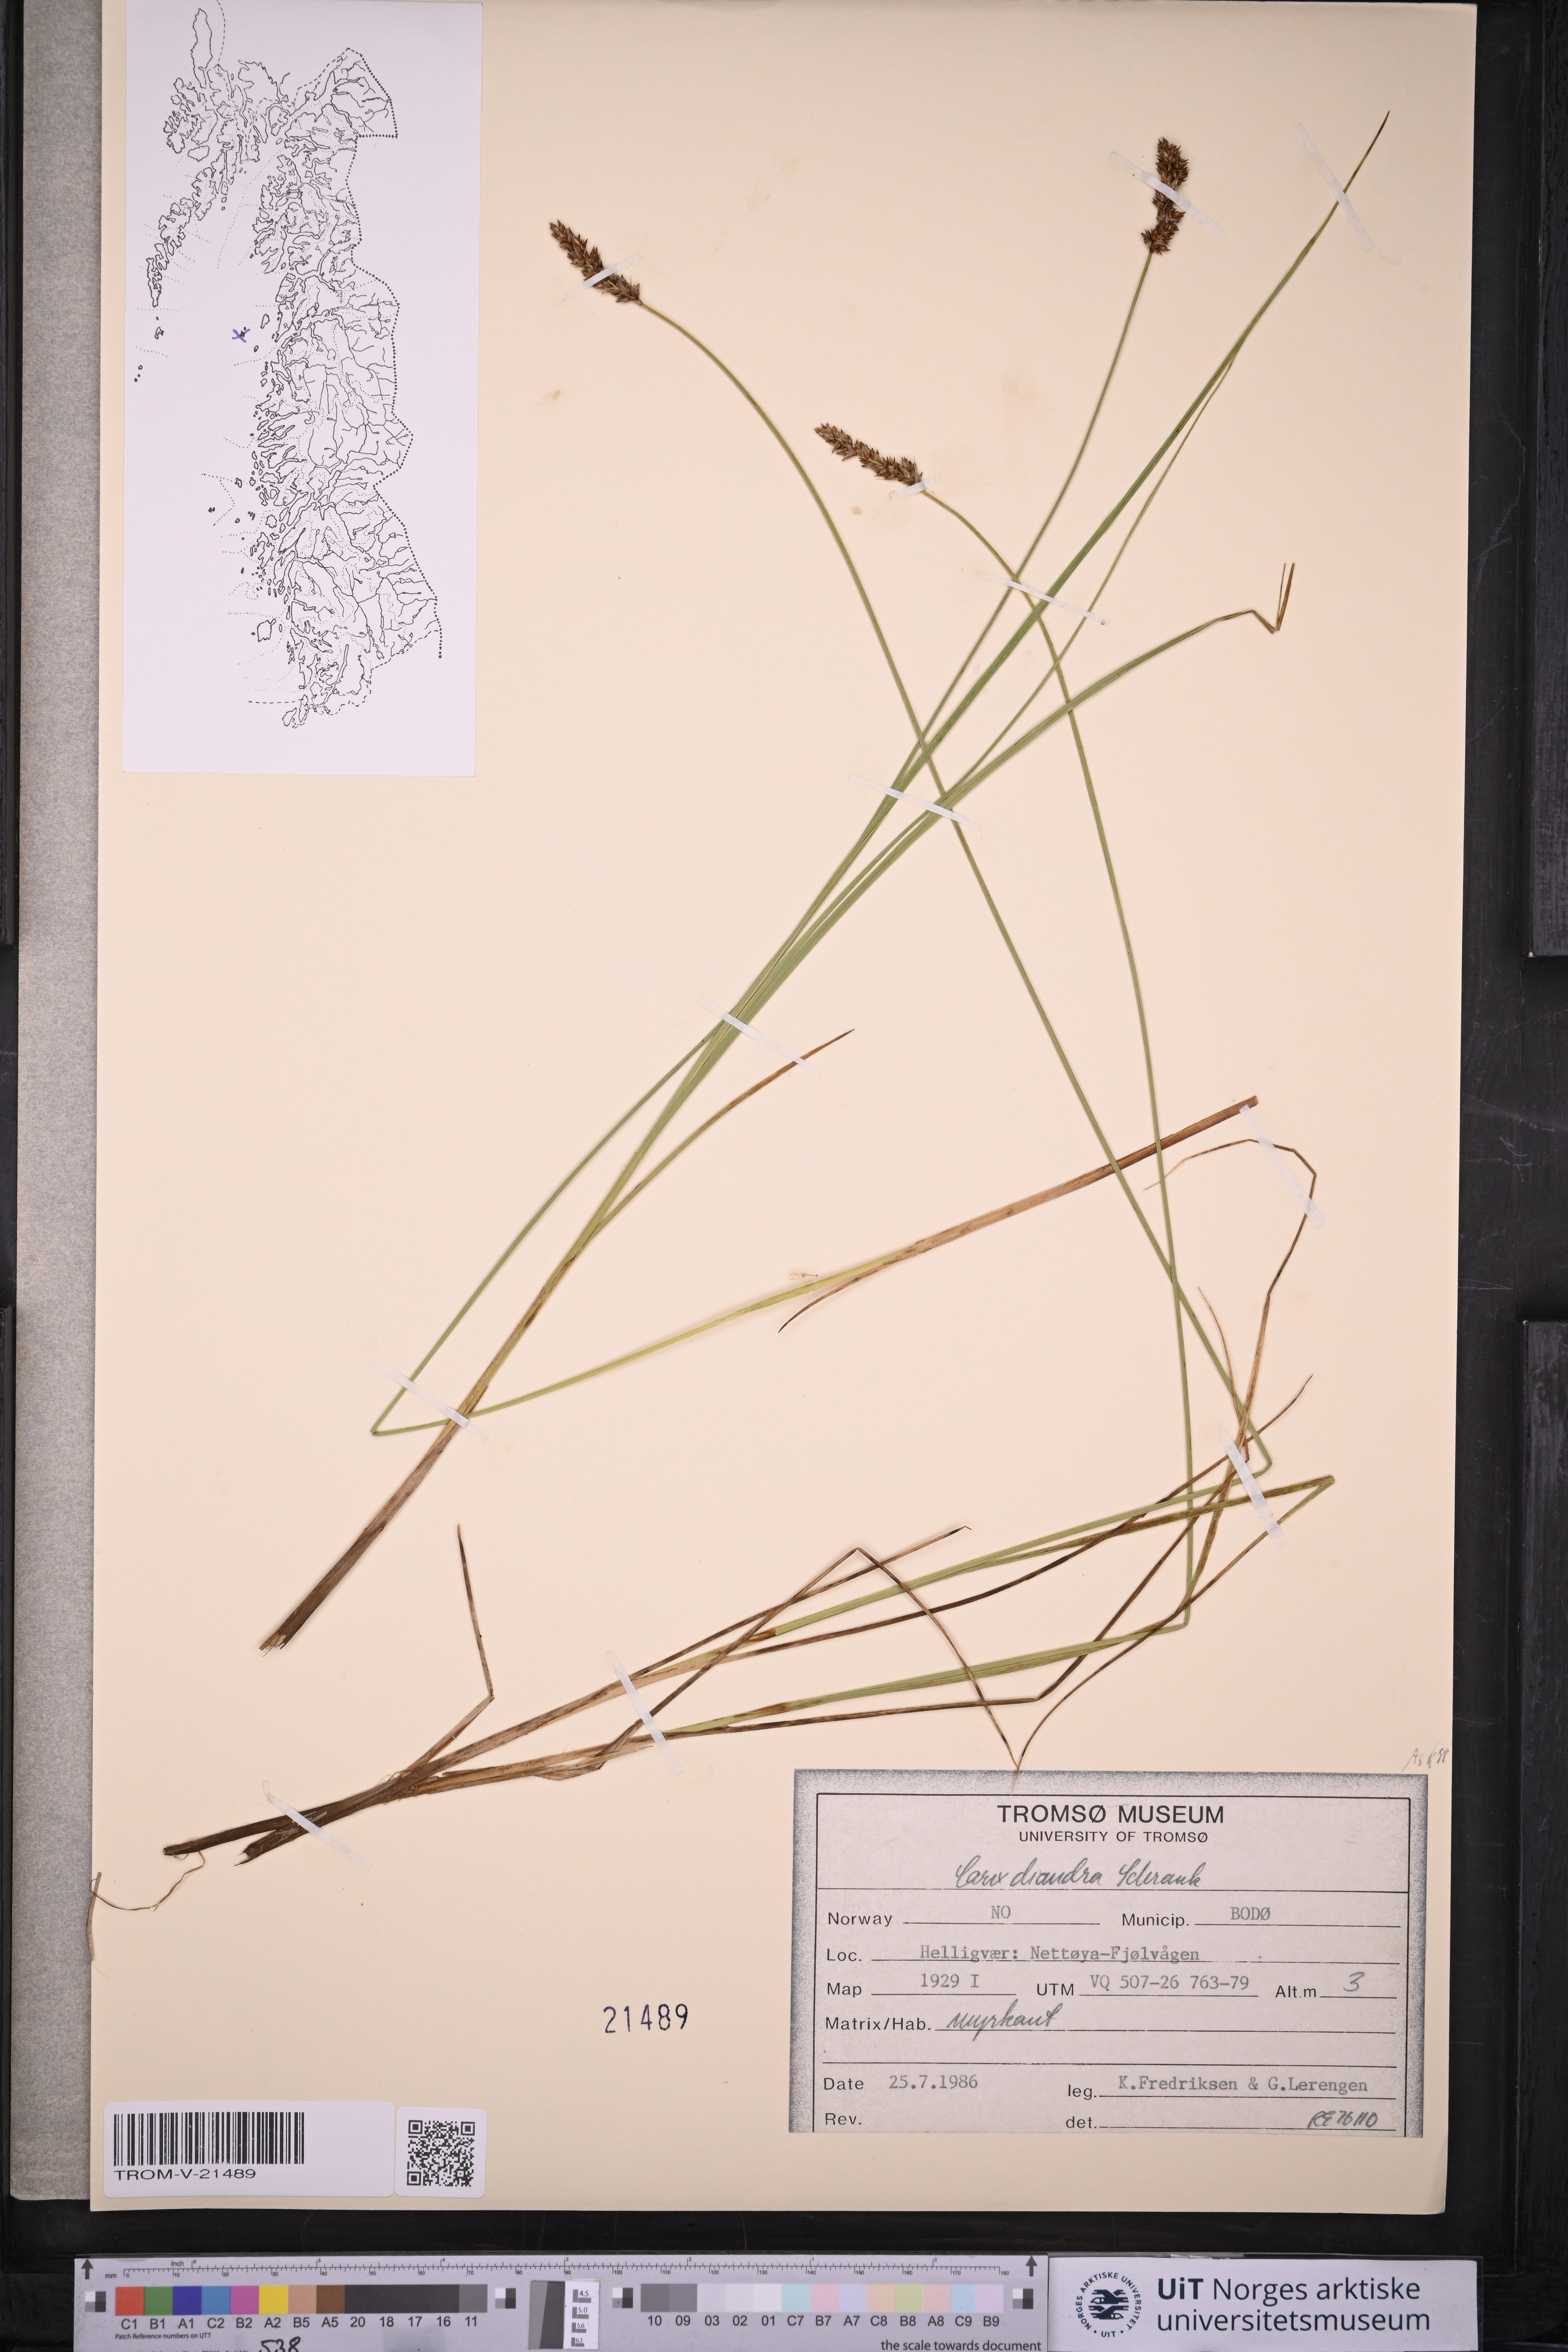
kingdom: Plantae
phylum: Tracheophyta
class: Liliopsida
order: Poales
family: Cyperaceae
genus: Carex
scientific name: Carex diandra
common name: Lesser tussock-sedge
